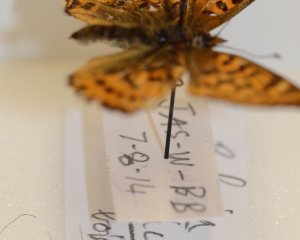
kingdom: Animalia
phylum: Arthropoda
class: Insecta
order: Lepidoptera
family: Nymphalidae
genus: Boloria
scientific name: Boloria chariclea
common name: Arctic Fritillary
